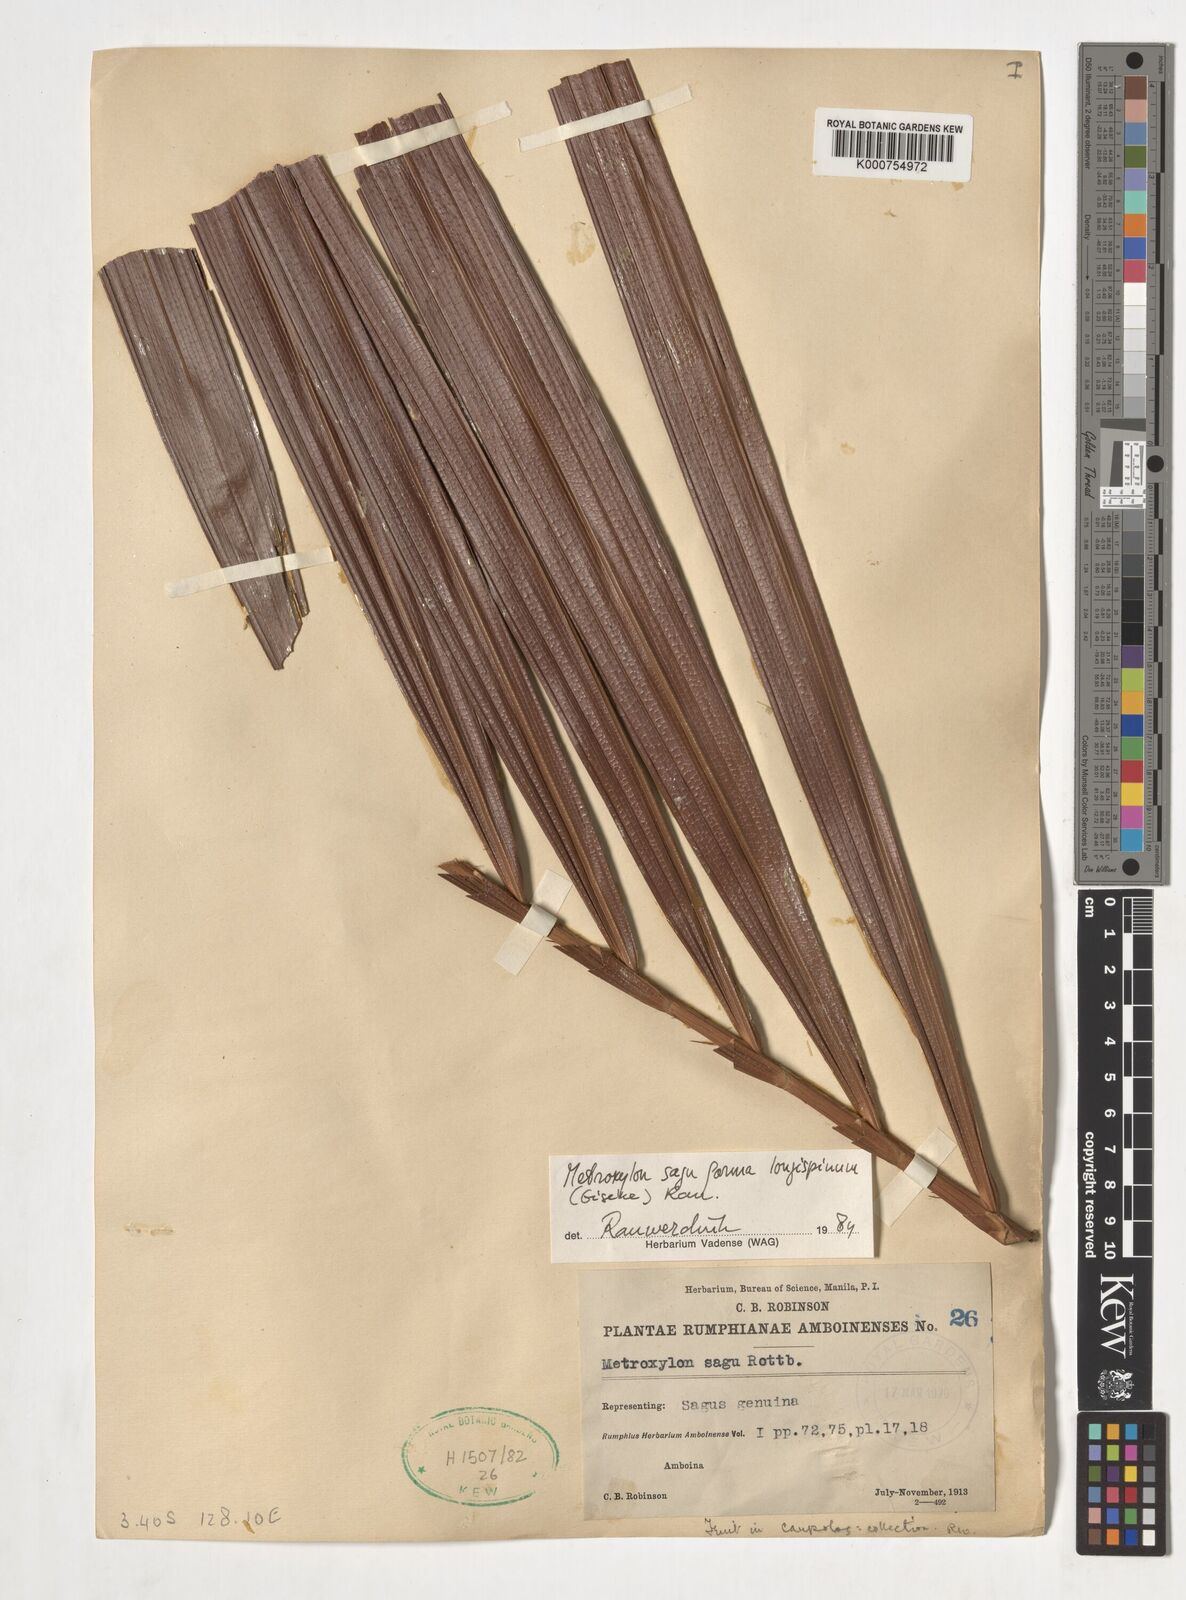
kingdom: Plantae
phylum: Tracheophyta
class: Liliopsida
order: Arecales
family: Arecaceae
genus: Metroxylon
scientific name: Metroxylon sagu
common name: Sago palm
